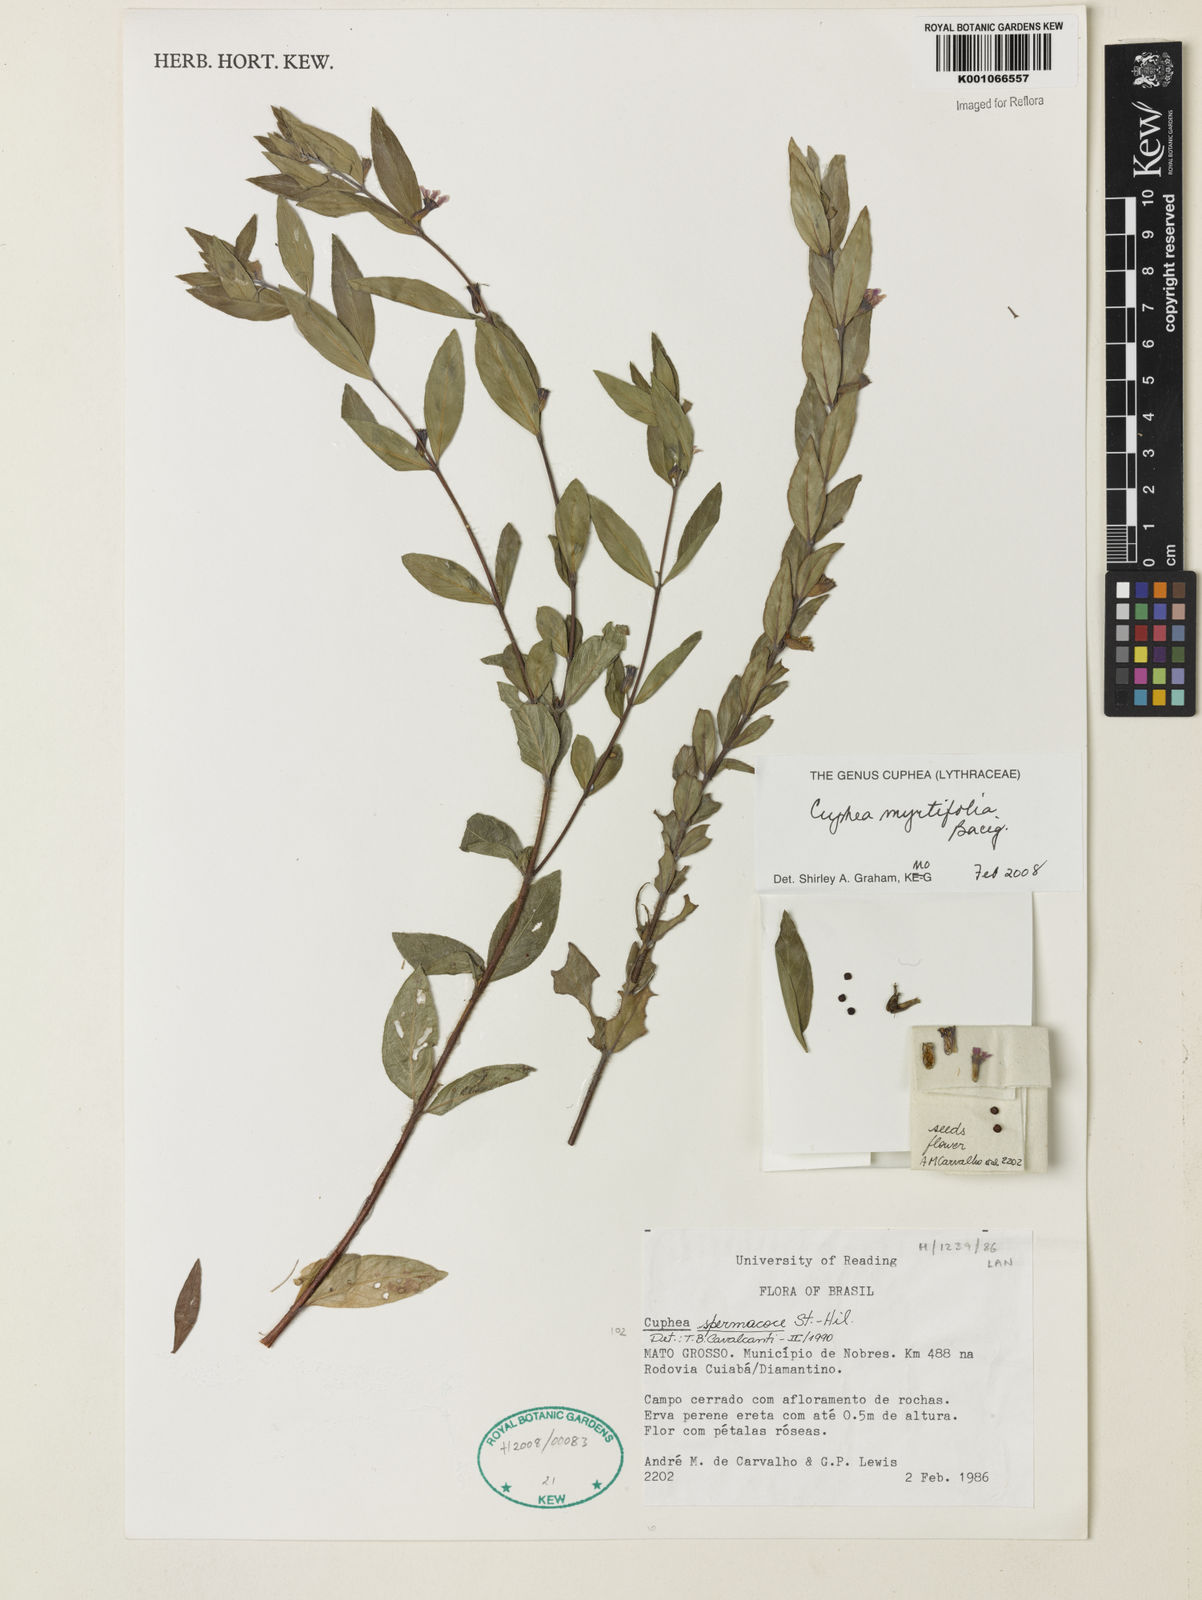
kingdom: Plantae
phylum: Tracheophyta
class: Magnoliopsida
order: Myrtales
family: Lythraceae
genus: Cuphea
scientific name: Cuphea myrtifolia
